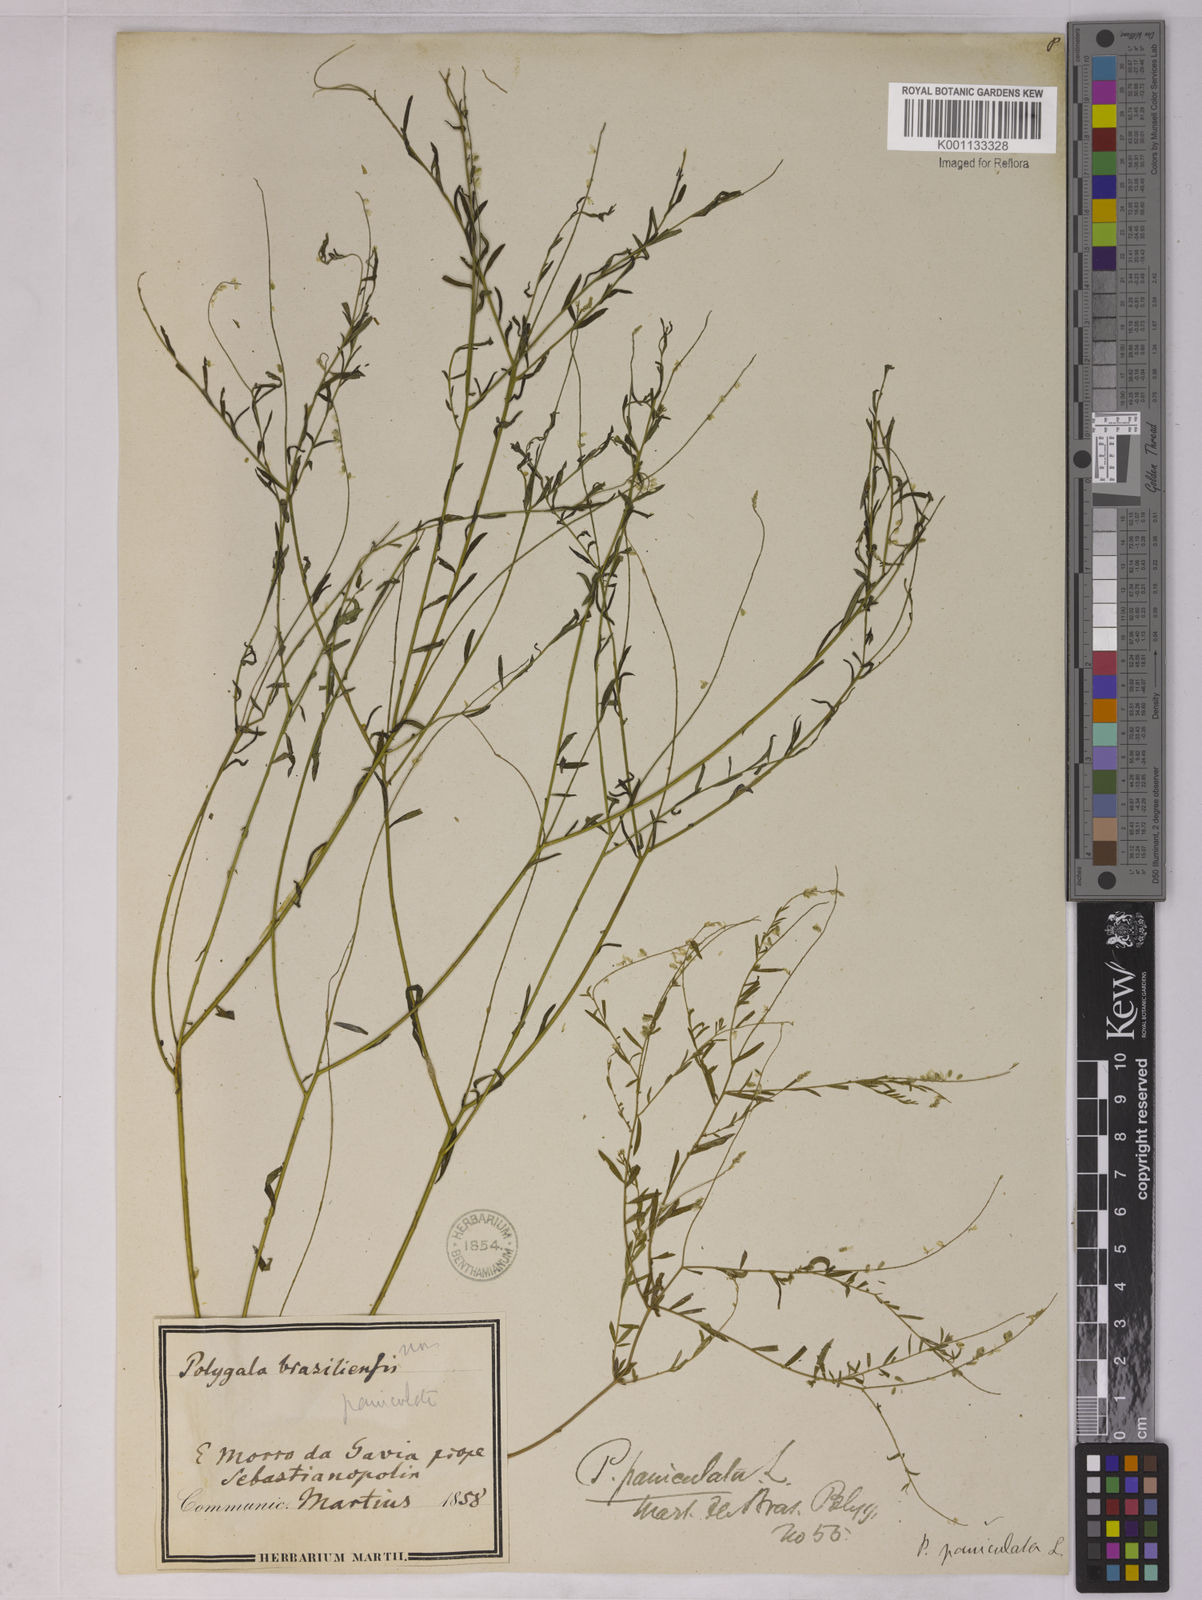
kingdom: Plantae
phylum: Tracheophyta
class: Magnoliopsida
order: Fabales
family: Polygalaceae
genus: Polygala
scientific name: Polygala paniculata
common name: Orosne
